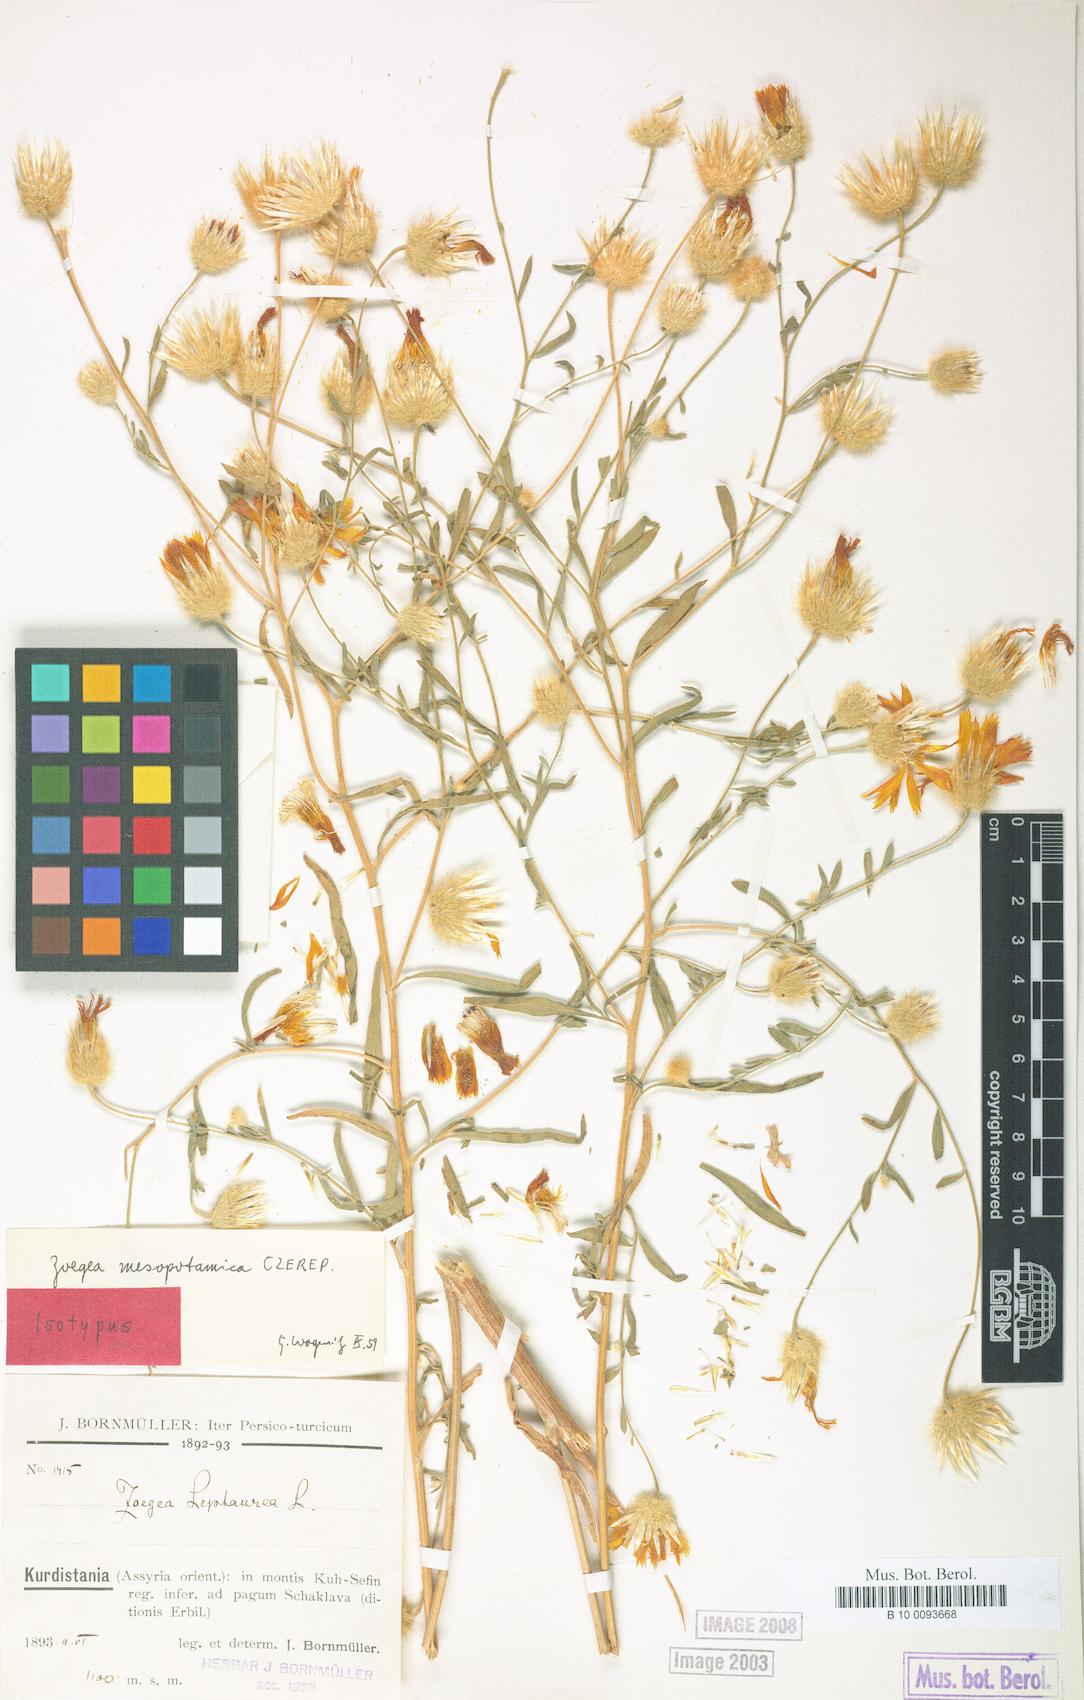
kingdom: Plantae
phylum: Tracheophyta
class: Magnoliopsida
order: Asterales
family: Asteraceae
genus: Zoegea
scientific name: Zoegea leptaurea
